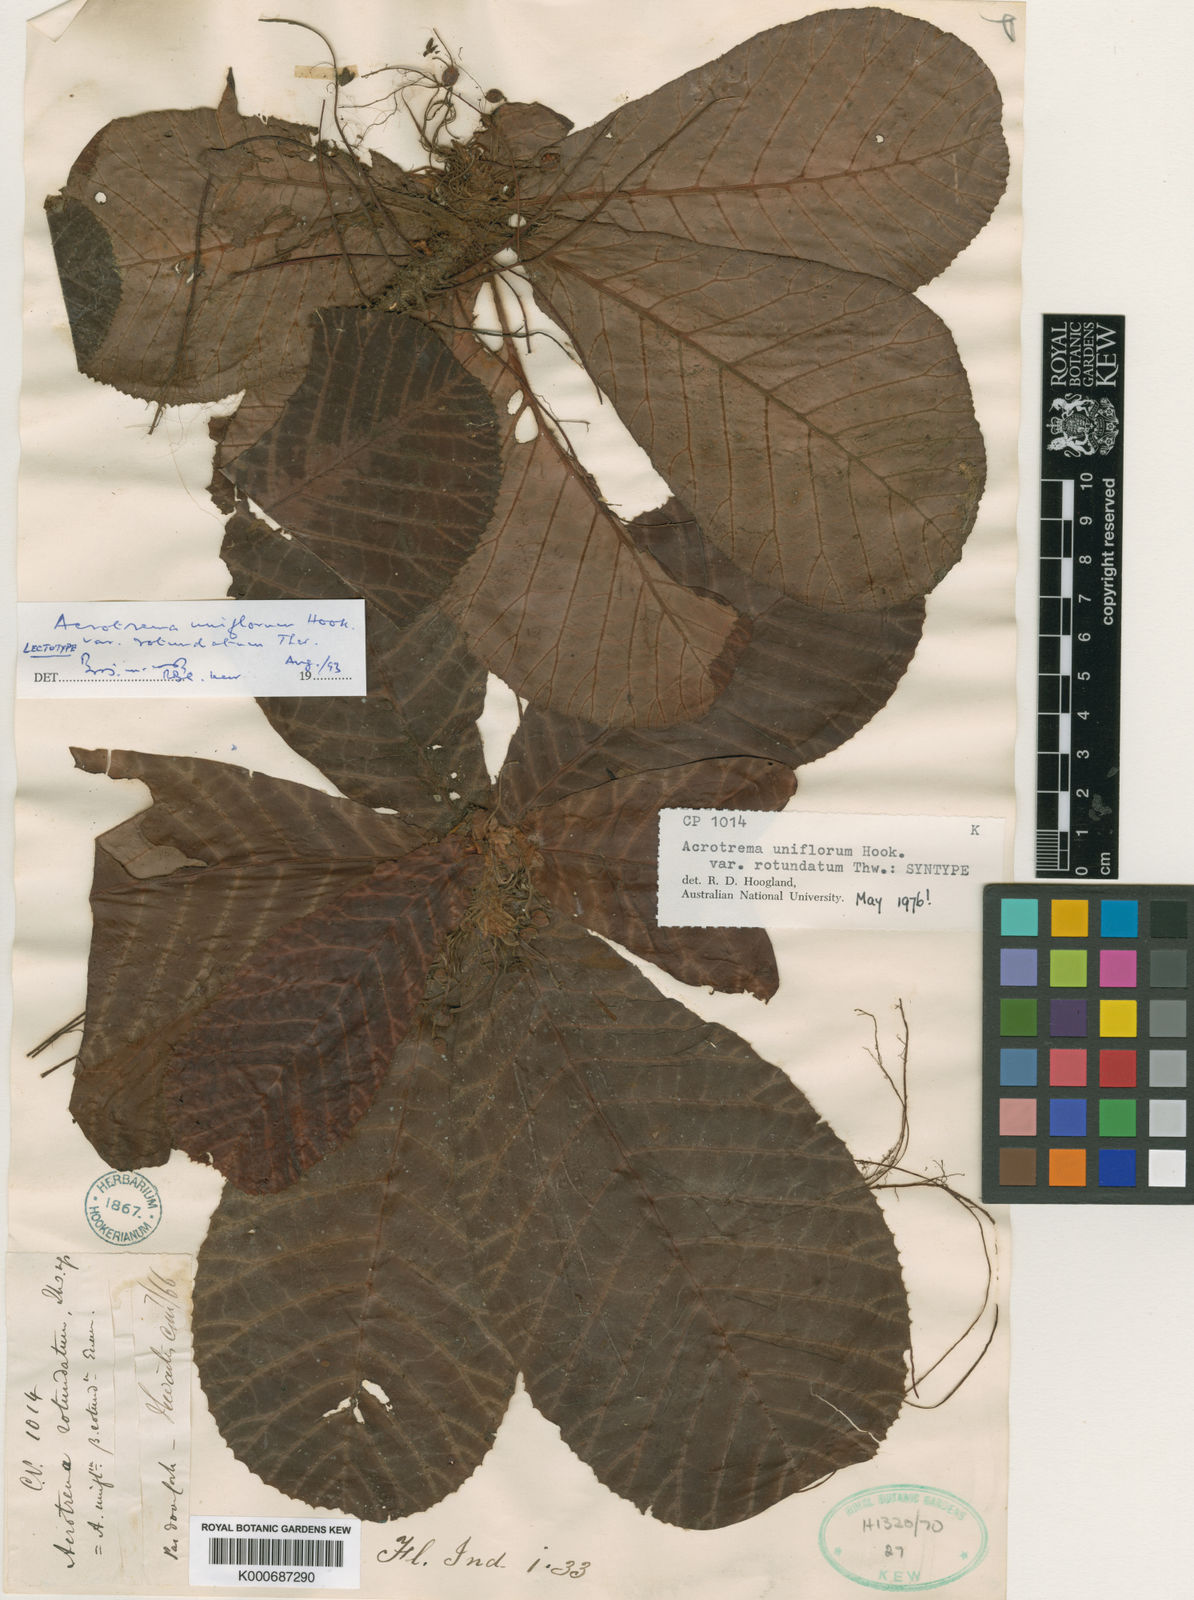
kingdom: Plantae
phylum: Tracheophyta
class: Magnoliopsida
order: Dilleniales
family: Dilleniaceae
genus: Acrotrema
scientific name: Acrotrema uniflorum
